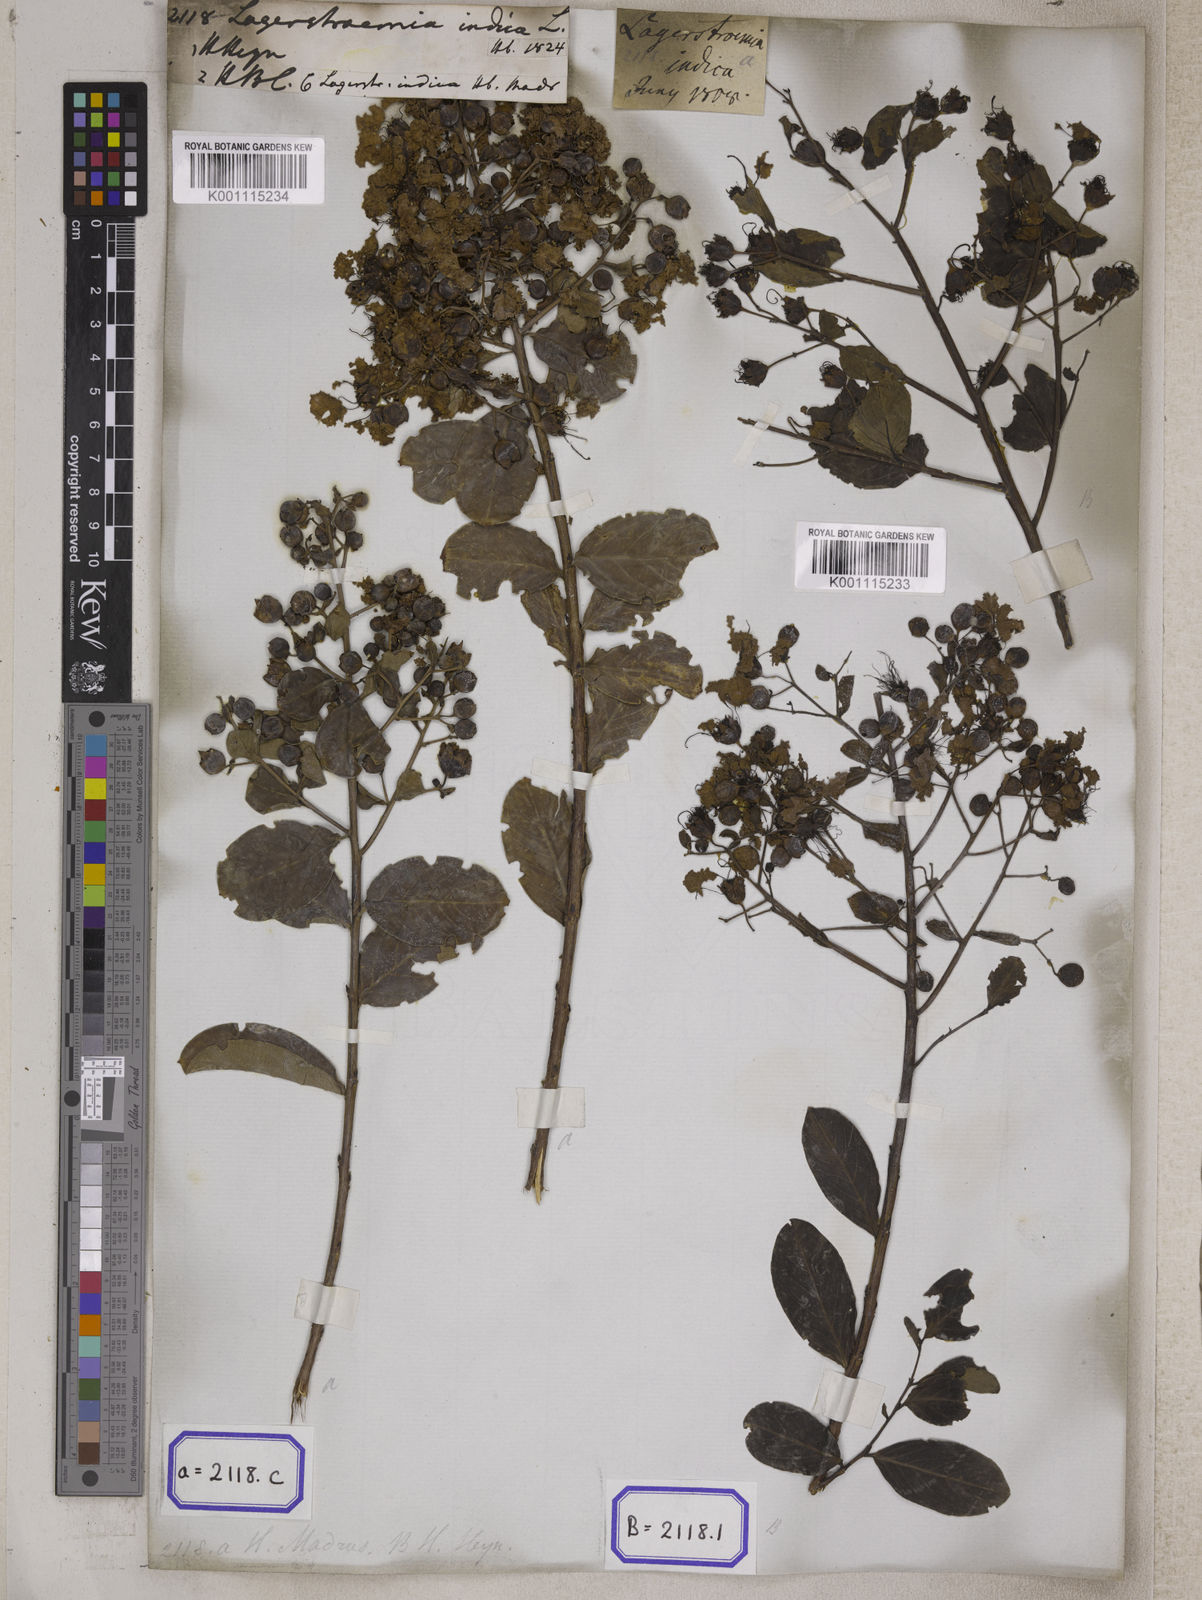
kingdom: Plantae
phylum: Tracheophyta
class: Magnoliopsida
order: Myrtales
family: Lythraceae
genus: Lagerstroemia
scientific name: Lagerstroemia indica
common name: Crape-myrtle
